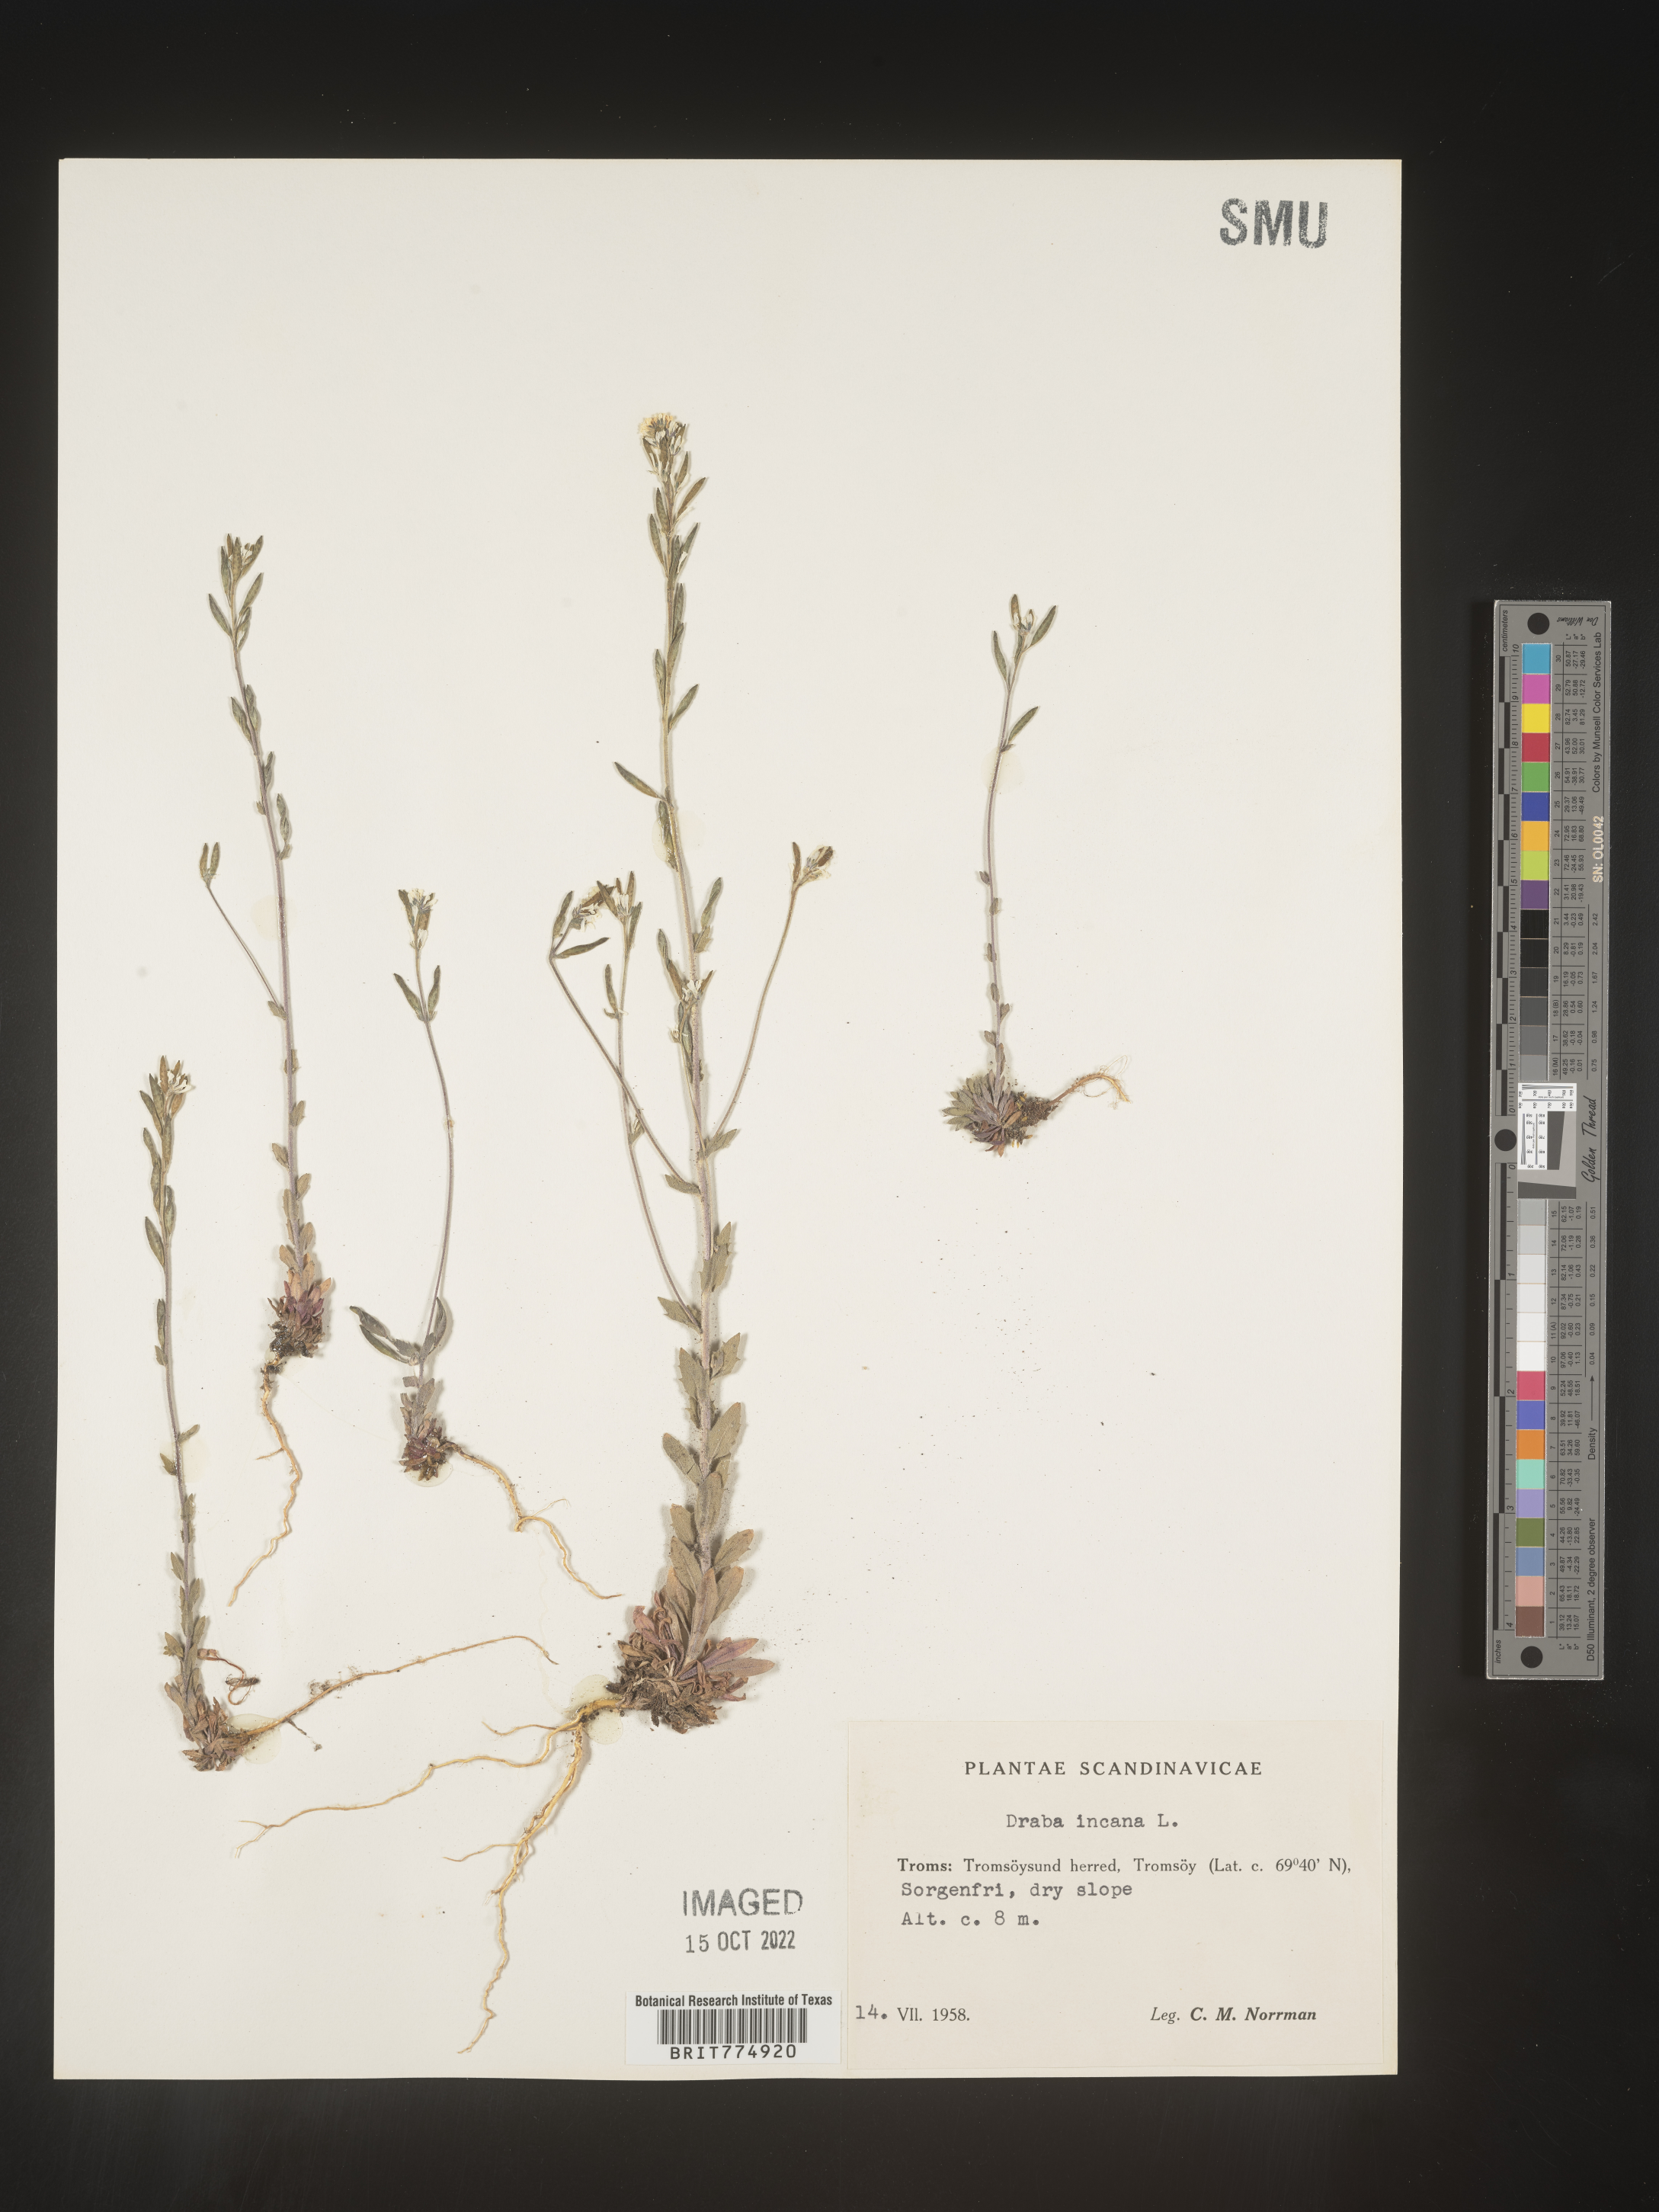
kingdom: Plantae
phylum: Tracheophyta
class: Magnoliopsida
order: Brassicales
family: Brassicaceae
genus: Draba
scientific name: Draba
